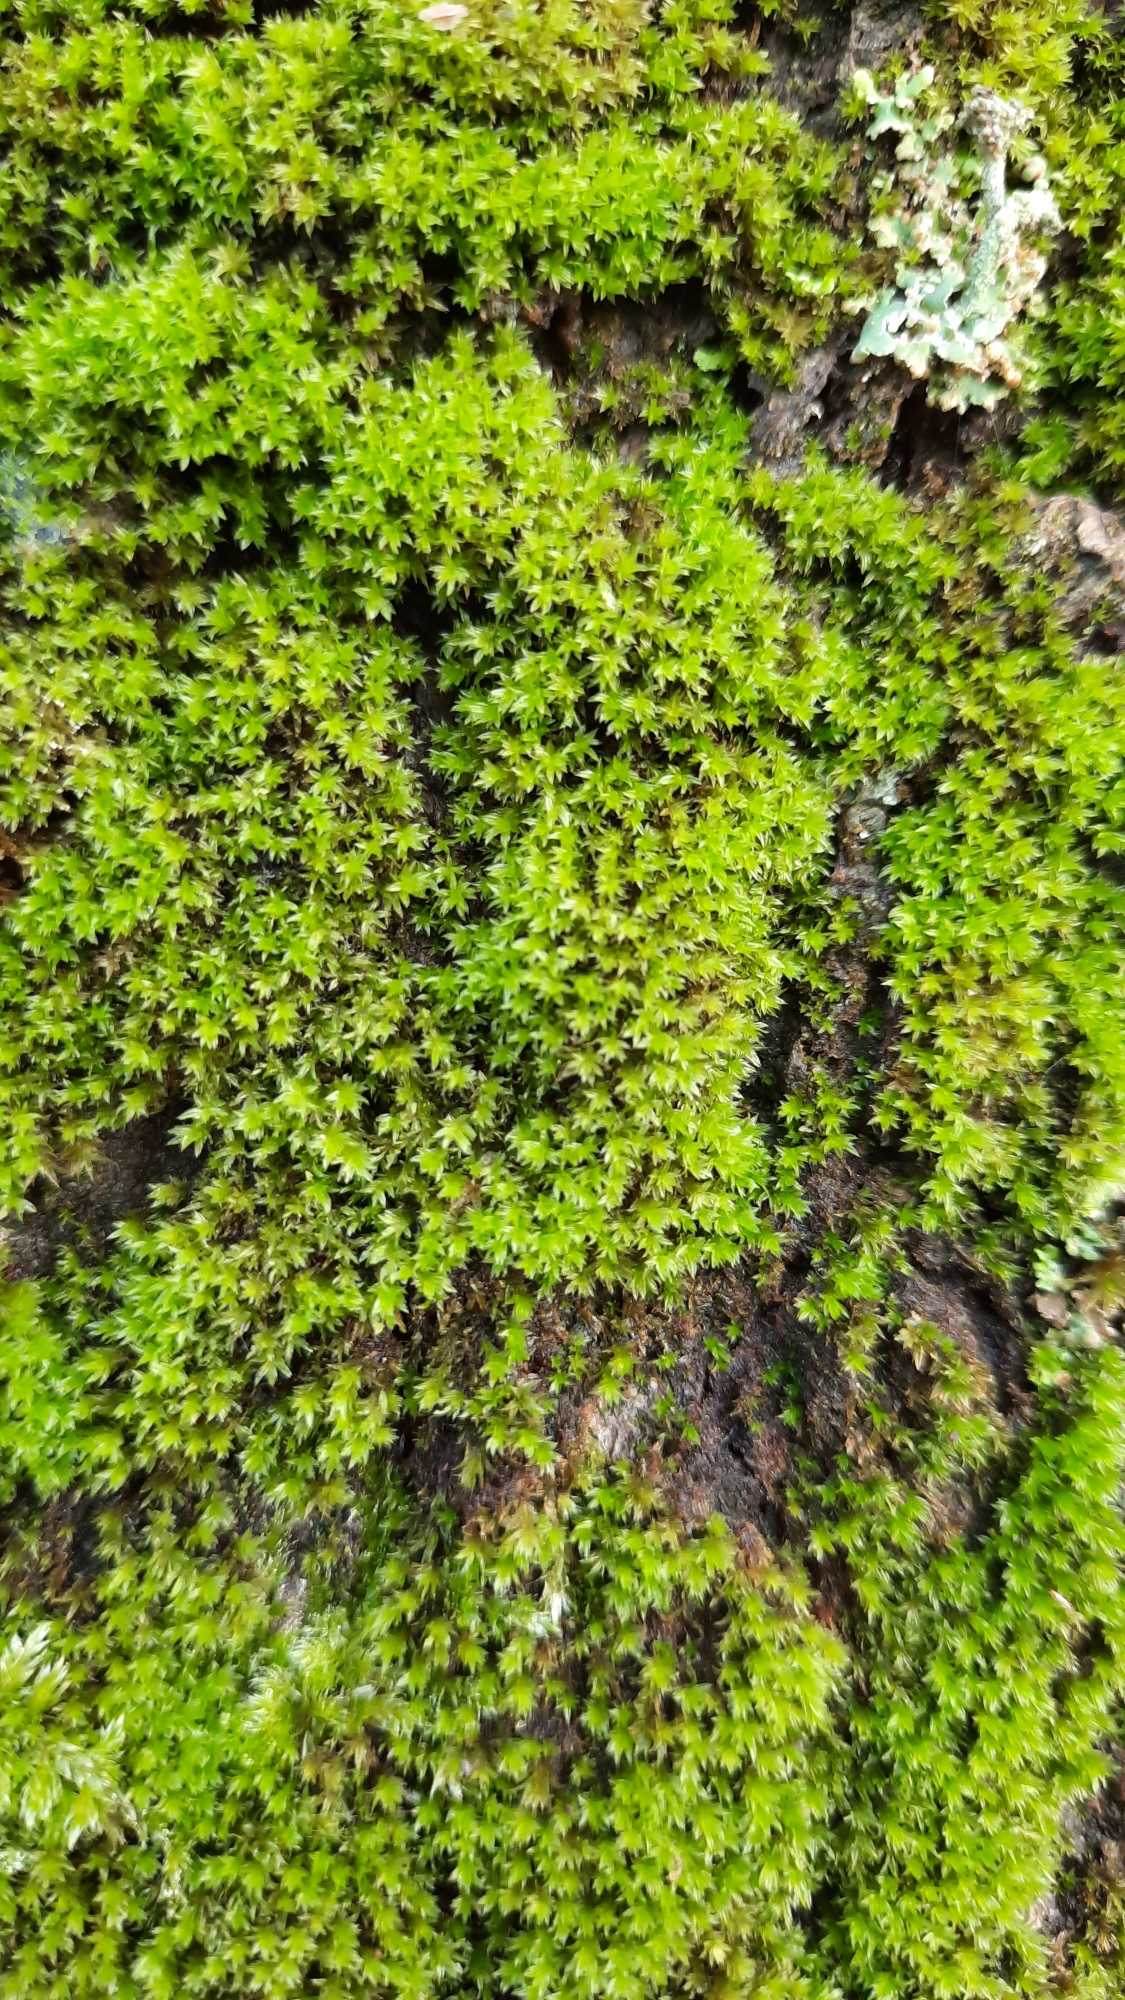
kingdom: Plantae
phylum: Bryophyta
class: Bryopsida
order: Orthotrichales
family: Orthotrichaceae
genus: Zygodon
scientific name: Zygodon
